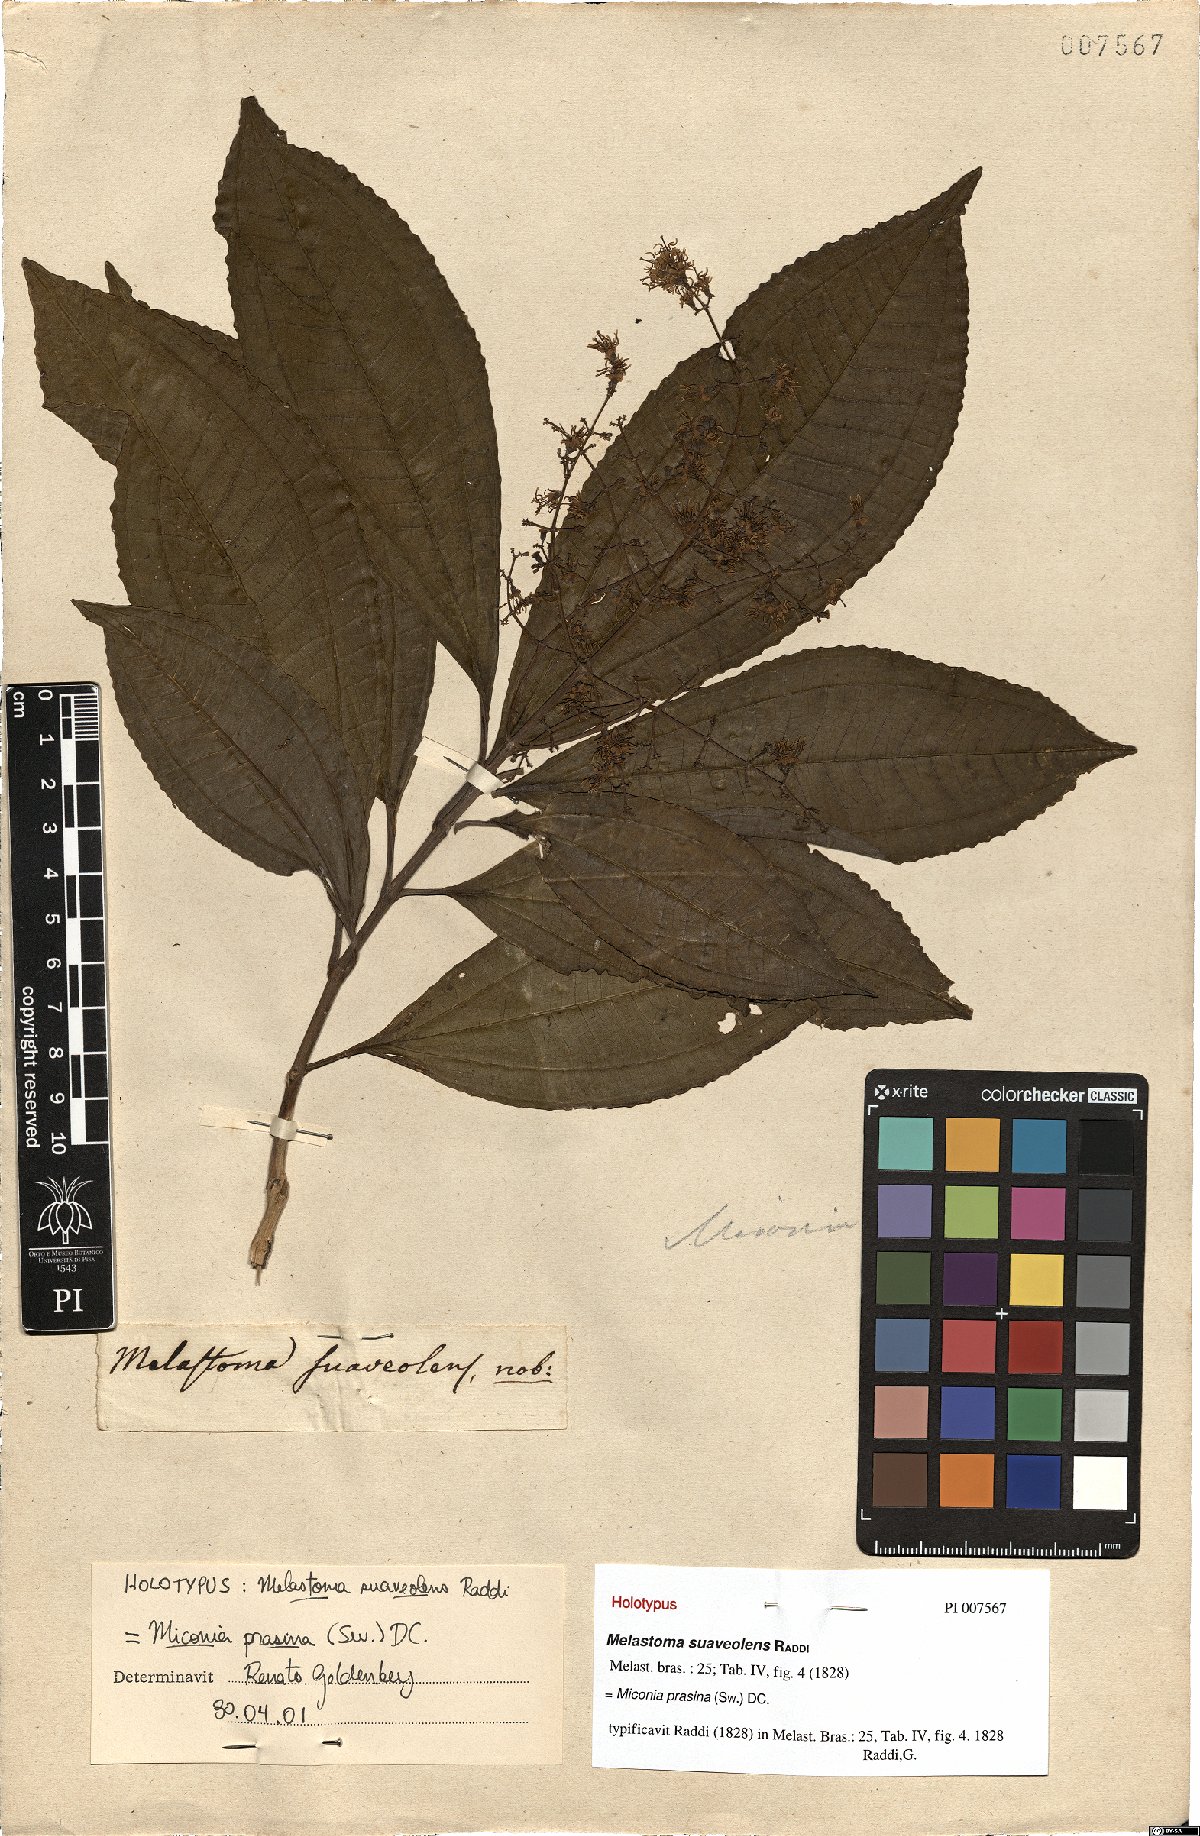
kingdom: Plantae
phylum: Tracheophyta
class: Magnoliopsida
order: Myrtales
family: Melastomataceae
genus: Miconia
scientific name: Miconia prasina
